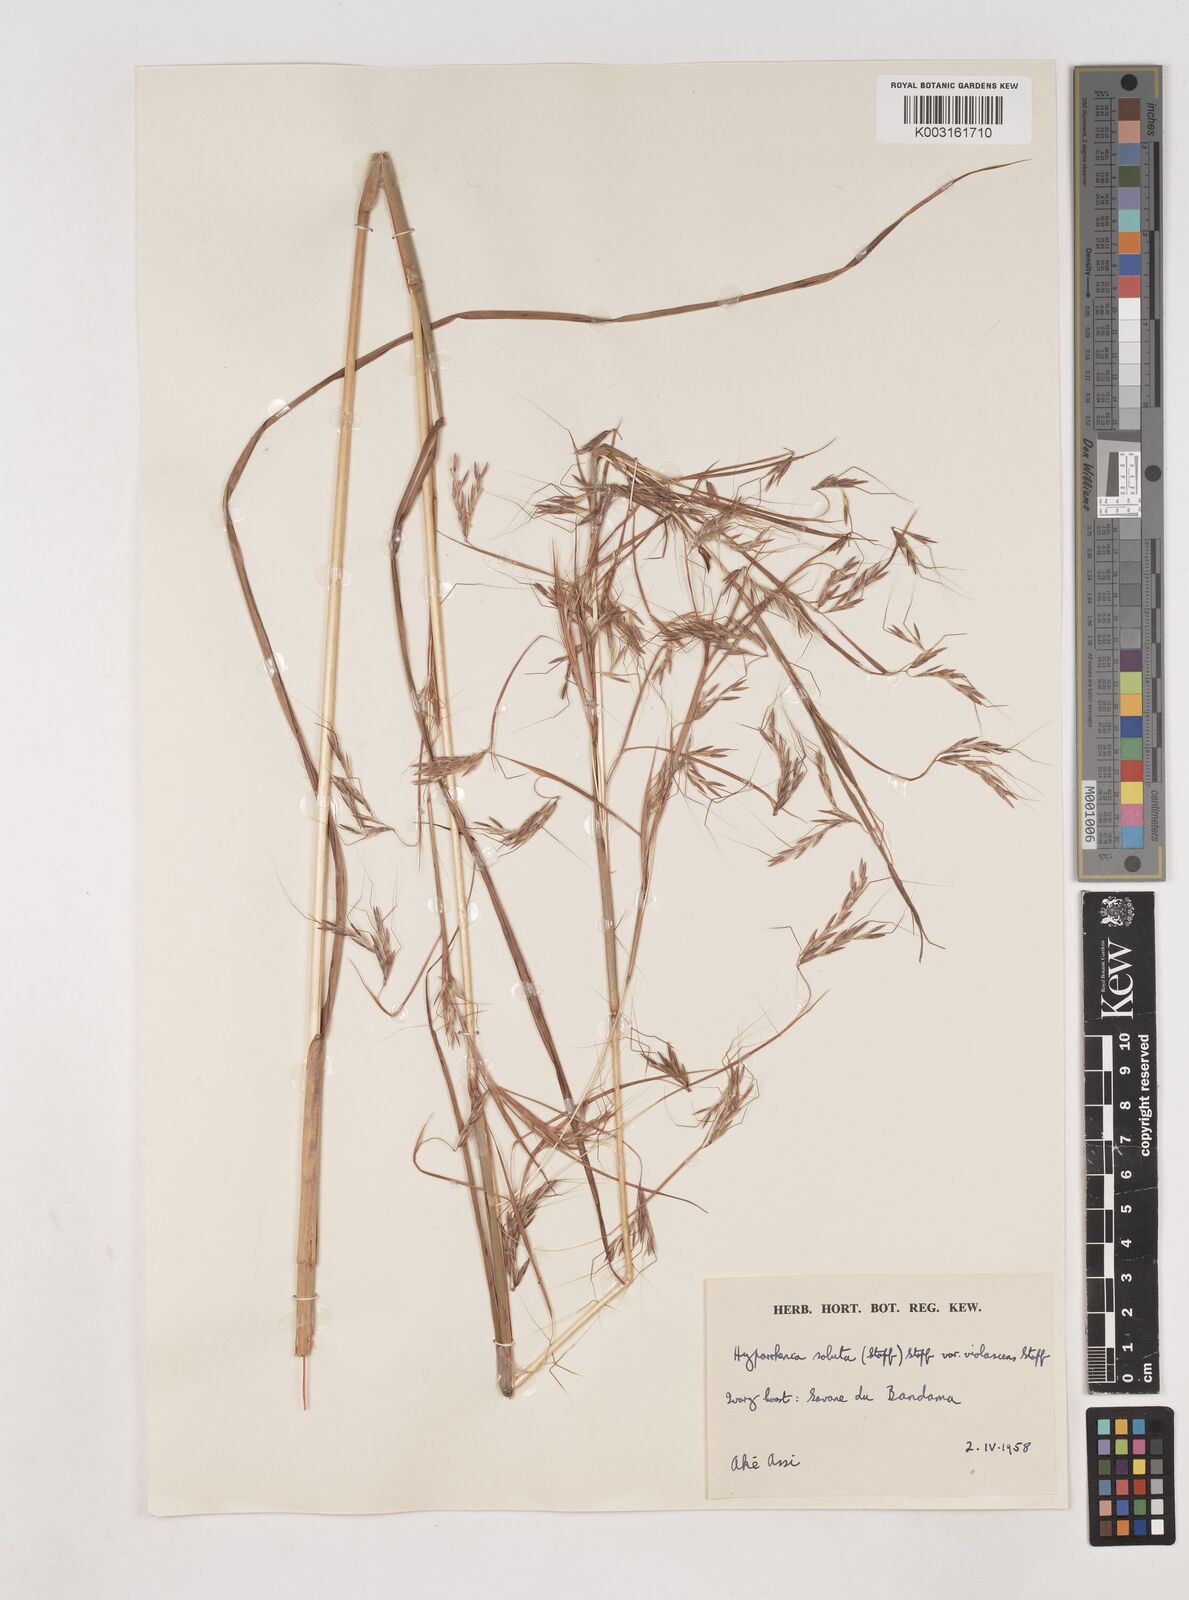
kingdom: Plantae
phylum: Tracheophyta
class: Liliopsida
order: Poales
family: Poaceae
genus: Hyparrhenia
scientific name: Hyparrhenia violascens
